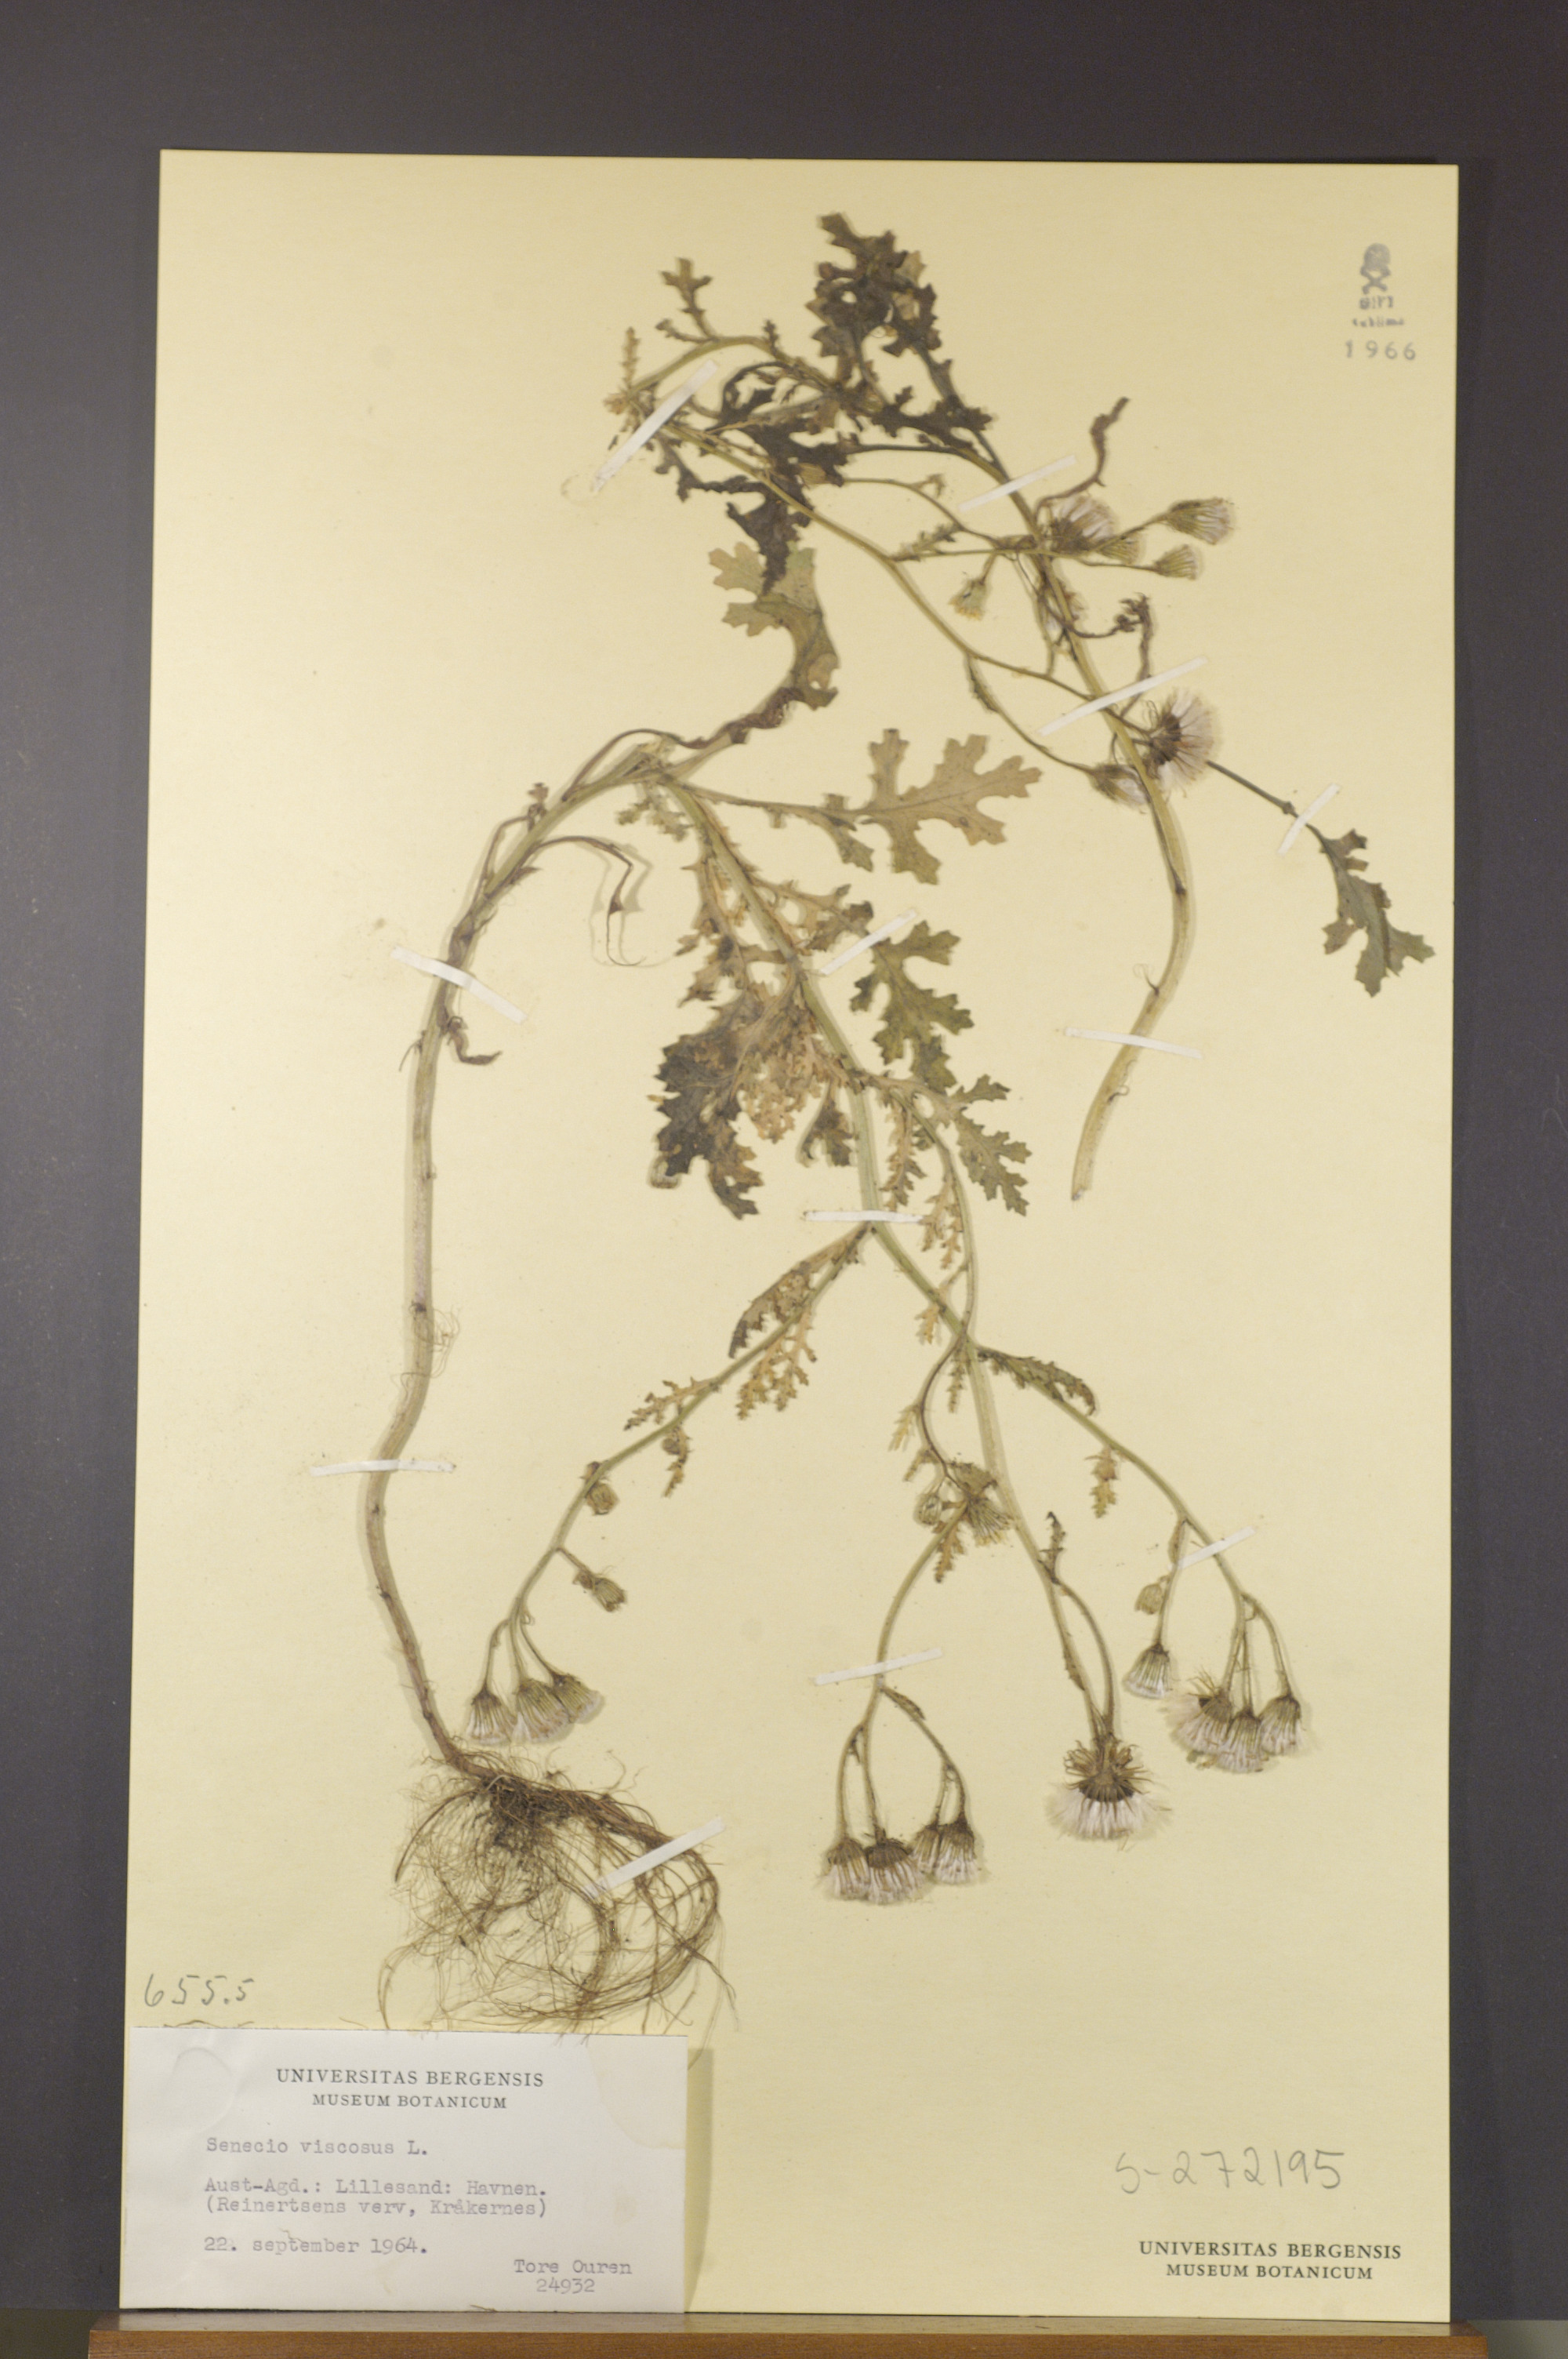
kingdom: Plantae
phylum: Tracheophyta
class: Magnoliopsida
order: Asterales
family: Asteraceae
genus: Senecio
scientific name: Senecio viscosus
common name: Sticky groundsel
